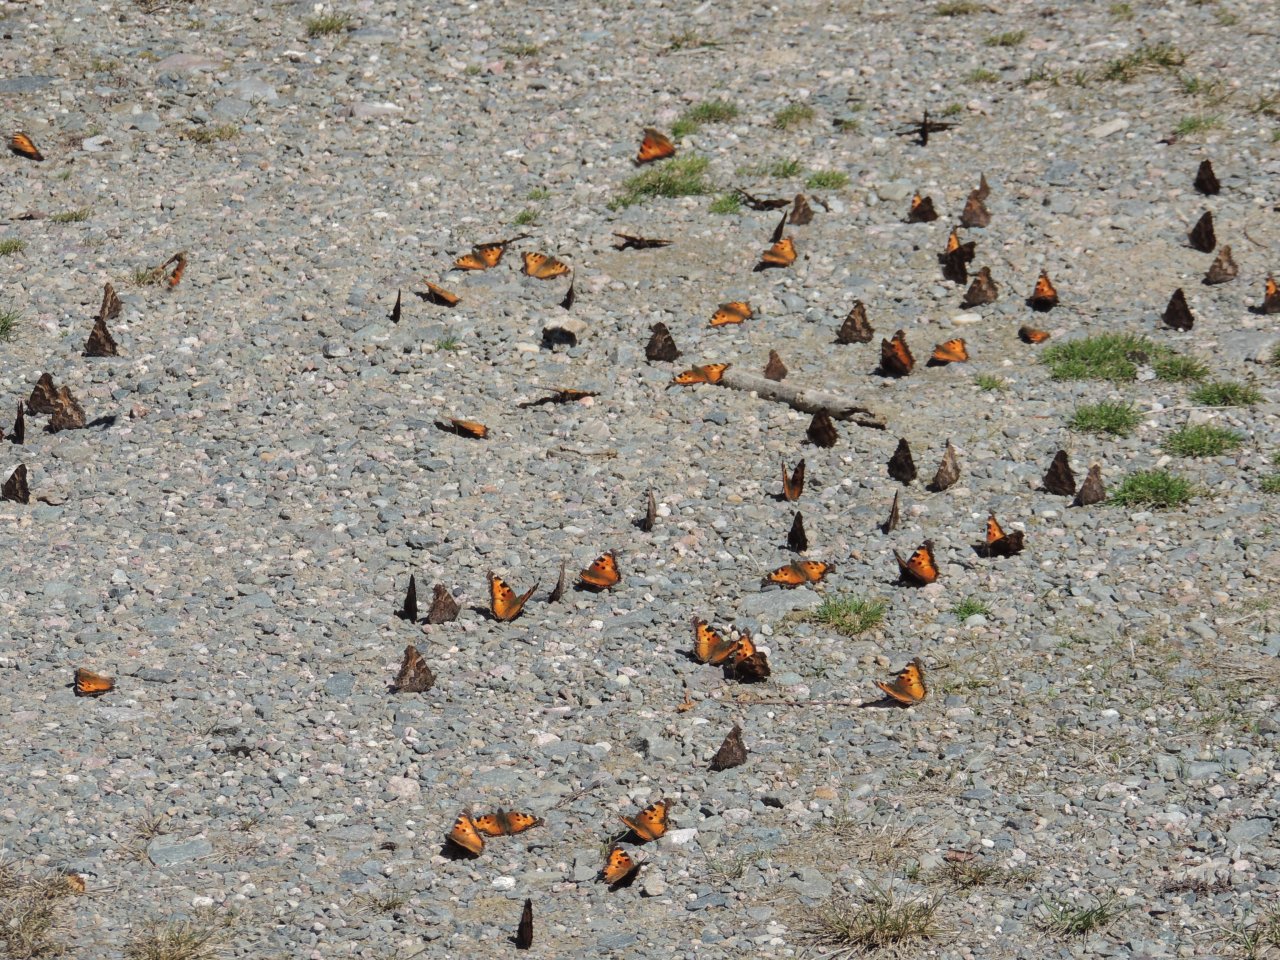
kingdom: Animalia
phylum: Arthropoda
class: Insecta
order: Lepidoptera
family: Nymphalidae
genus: Nymphalis
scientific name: Nymphalis californica
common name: California Tortoiseshell
